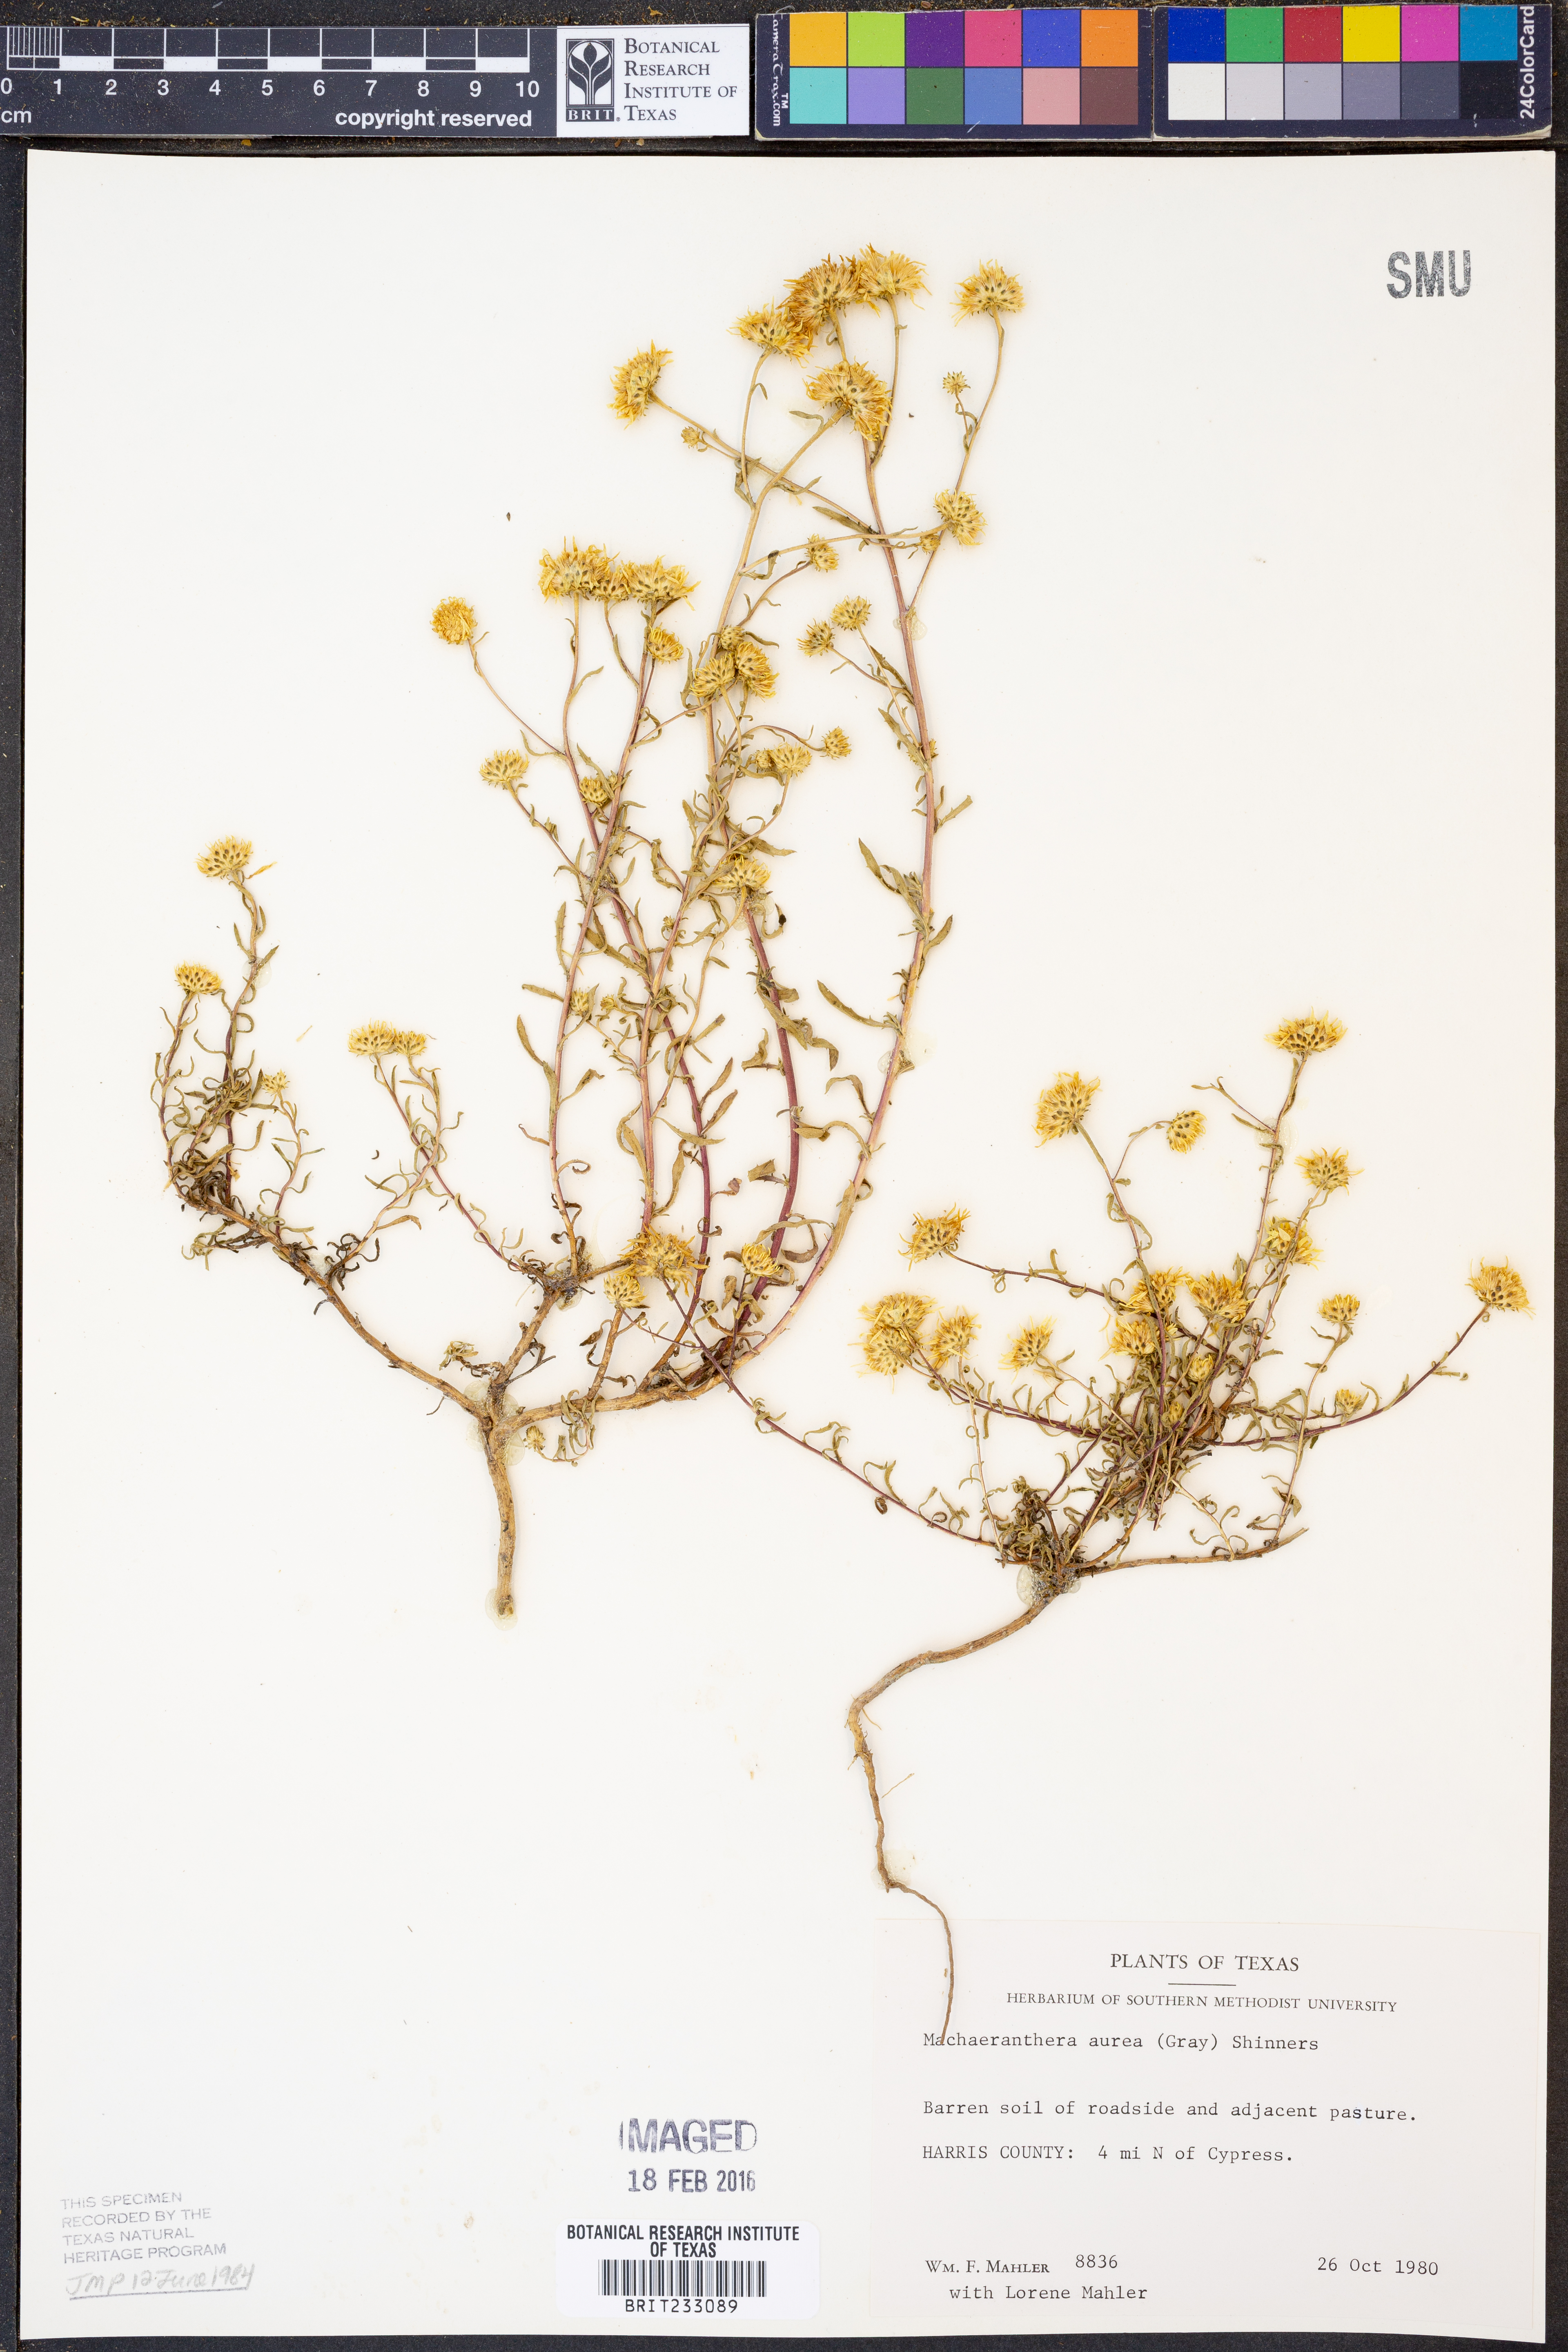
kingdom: Plantae
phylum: Tracheophyta
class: Magnoliopsida
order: Asterales
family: Asteraceae
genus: Rayjacksonia
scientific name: Rayjacksonia aurea
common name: Houston camphor daisy
